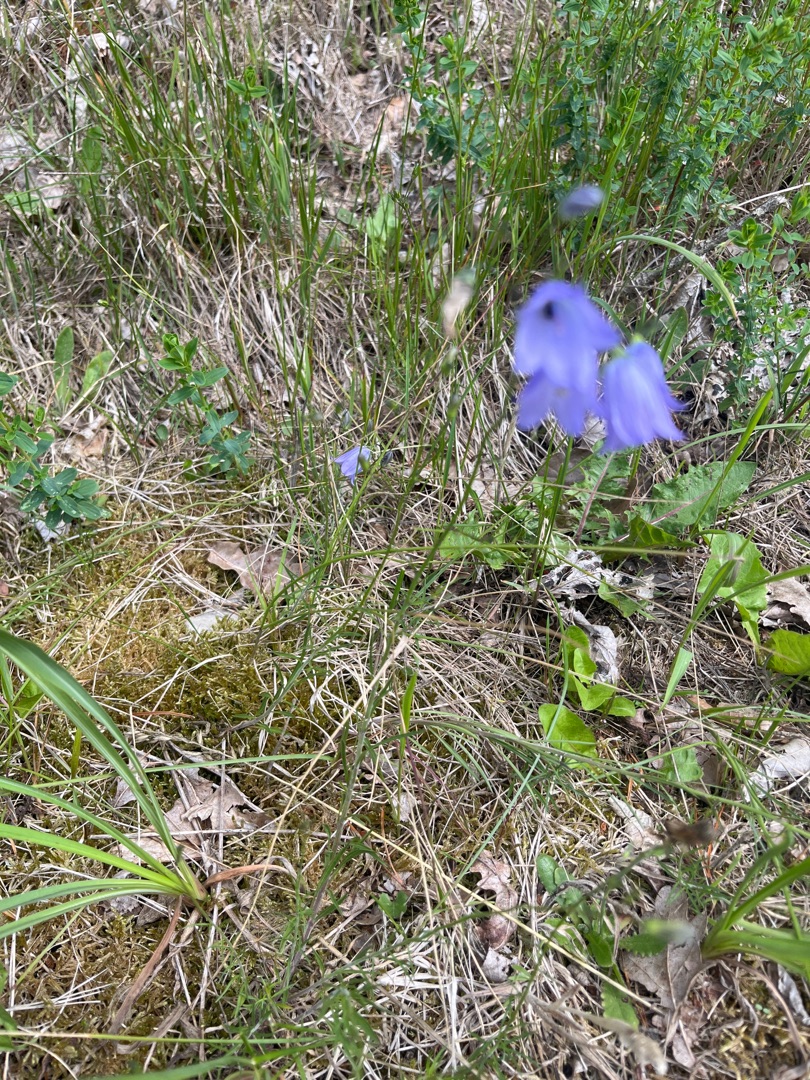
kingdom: Plantae
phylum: Tracheophyta
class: Magnoliopsida
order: Asterales
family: Campanulaceae
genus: Campanula
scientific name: Campanula rotundifolia
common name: Liden klokke
